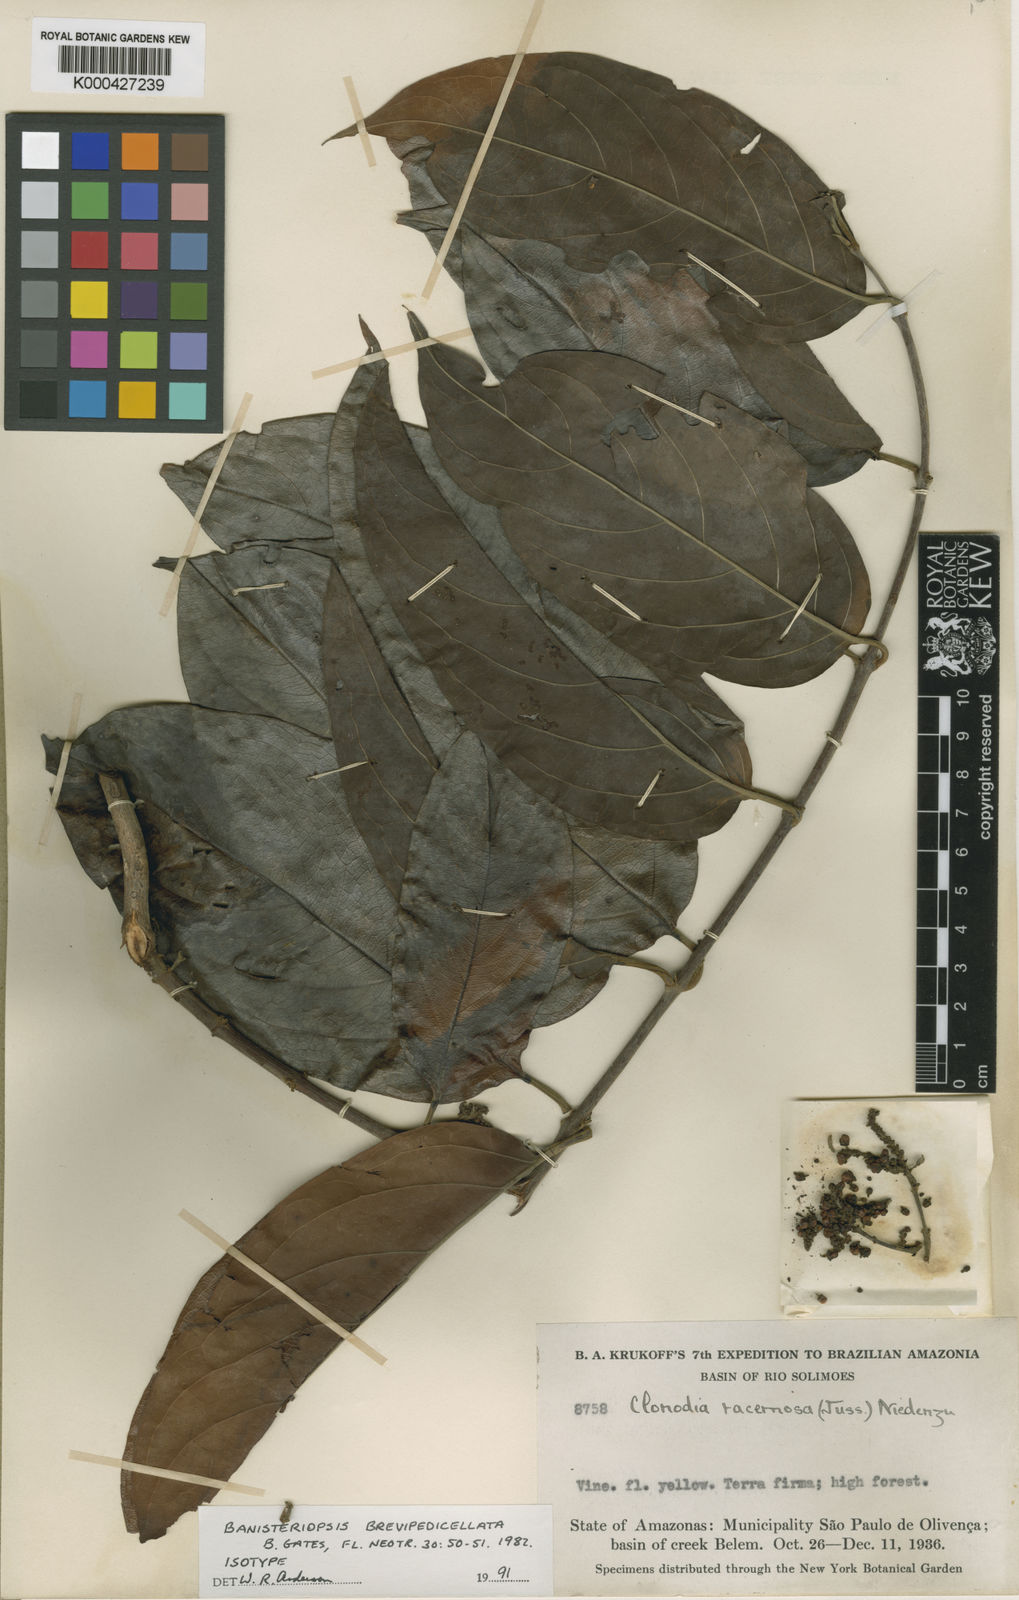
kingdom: Plantae
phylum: Tracheophyta
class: Magnoliopsida
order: Malpighiales
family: Malpighiaceae
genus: Bronwenia
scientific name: Bronwenia brevipedicellata
